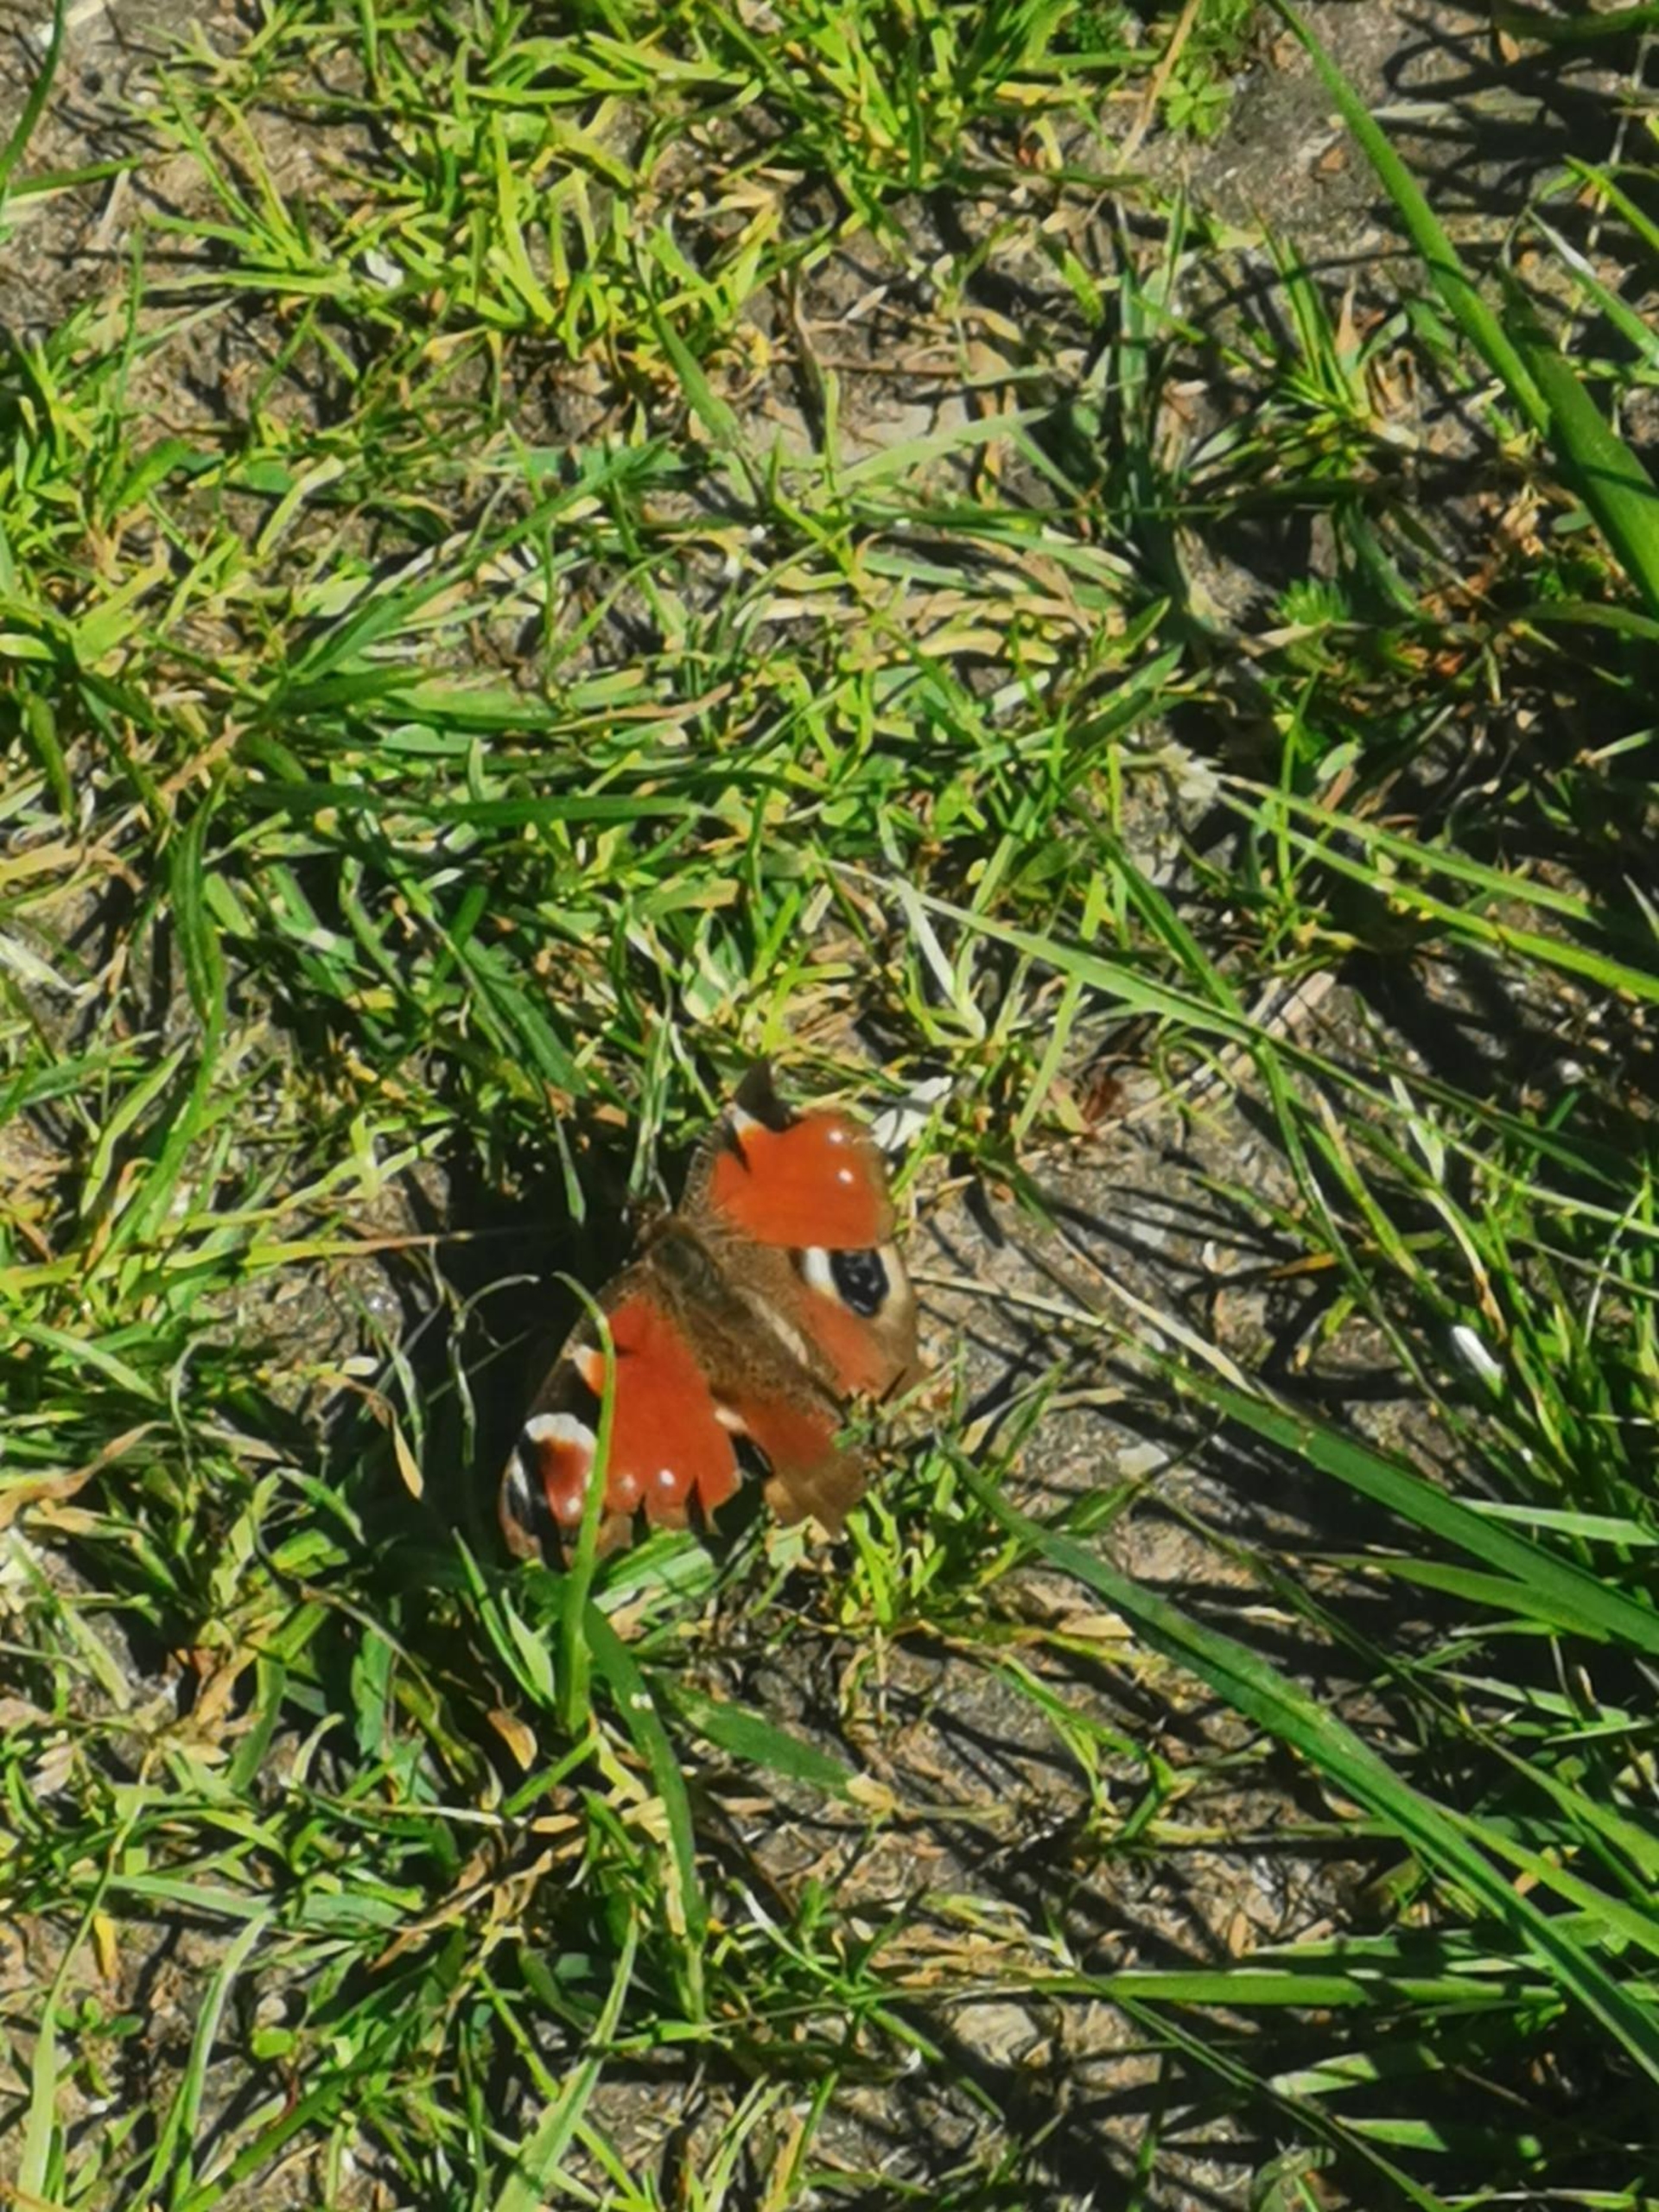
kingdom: Animalia
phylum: Arthropoda
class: Insecta
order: Lepidoptera
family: Nymphalidae
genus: Aglais
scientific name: Aglais io
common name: Dagpåfugleøje
